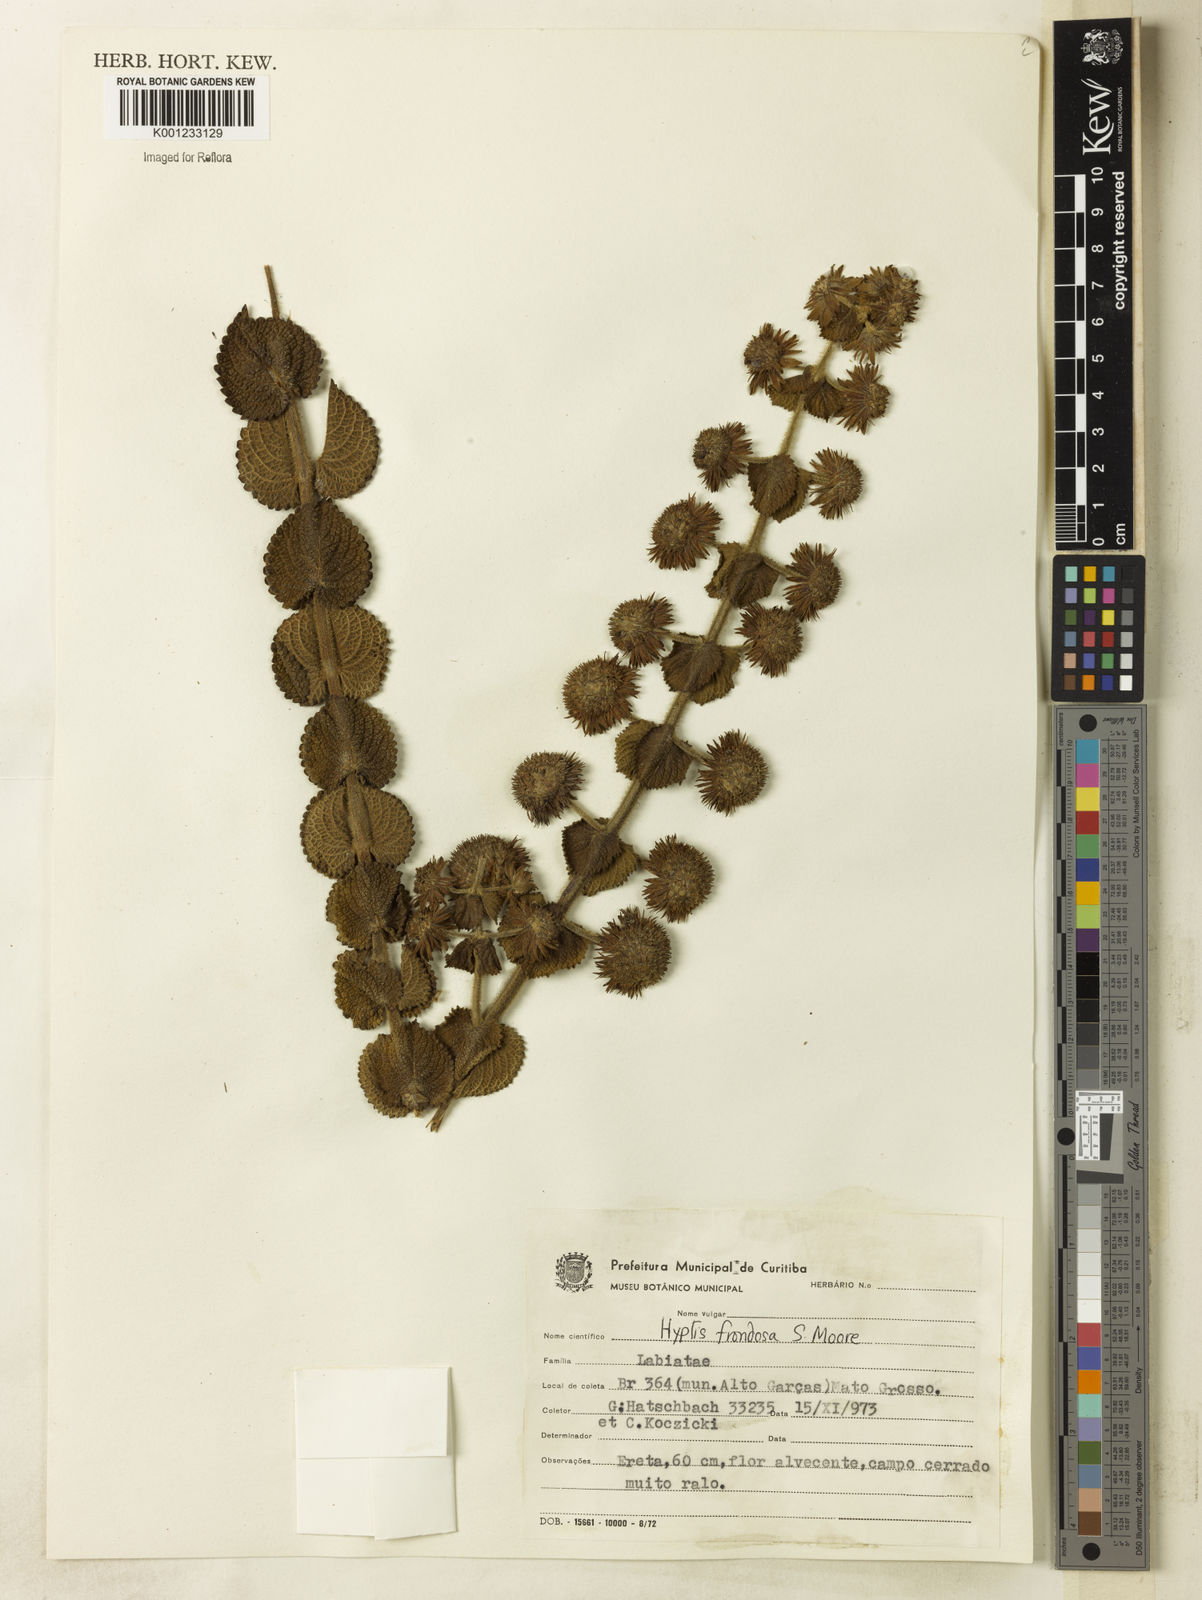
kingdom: Plantae
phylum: Tracheophyta
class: Magnoliopsida
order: Lamiales
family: Lamiaceae
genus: Hyptis
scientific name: Hyptis frondosa
